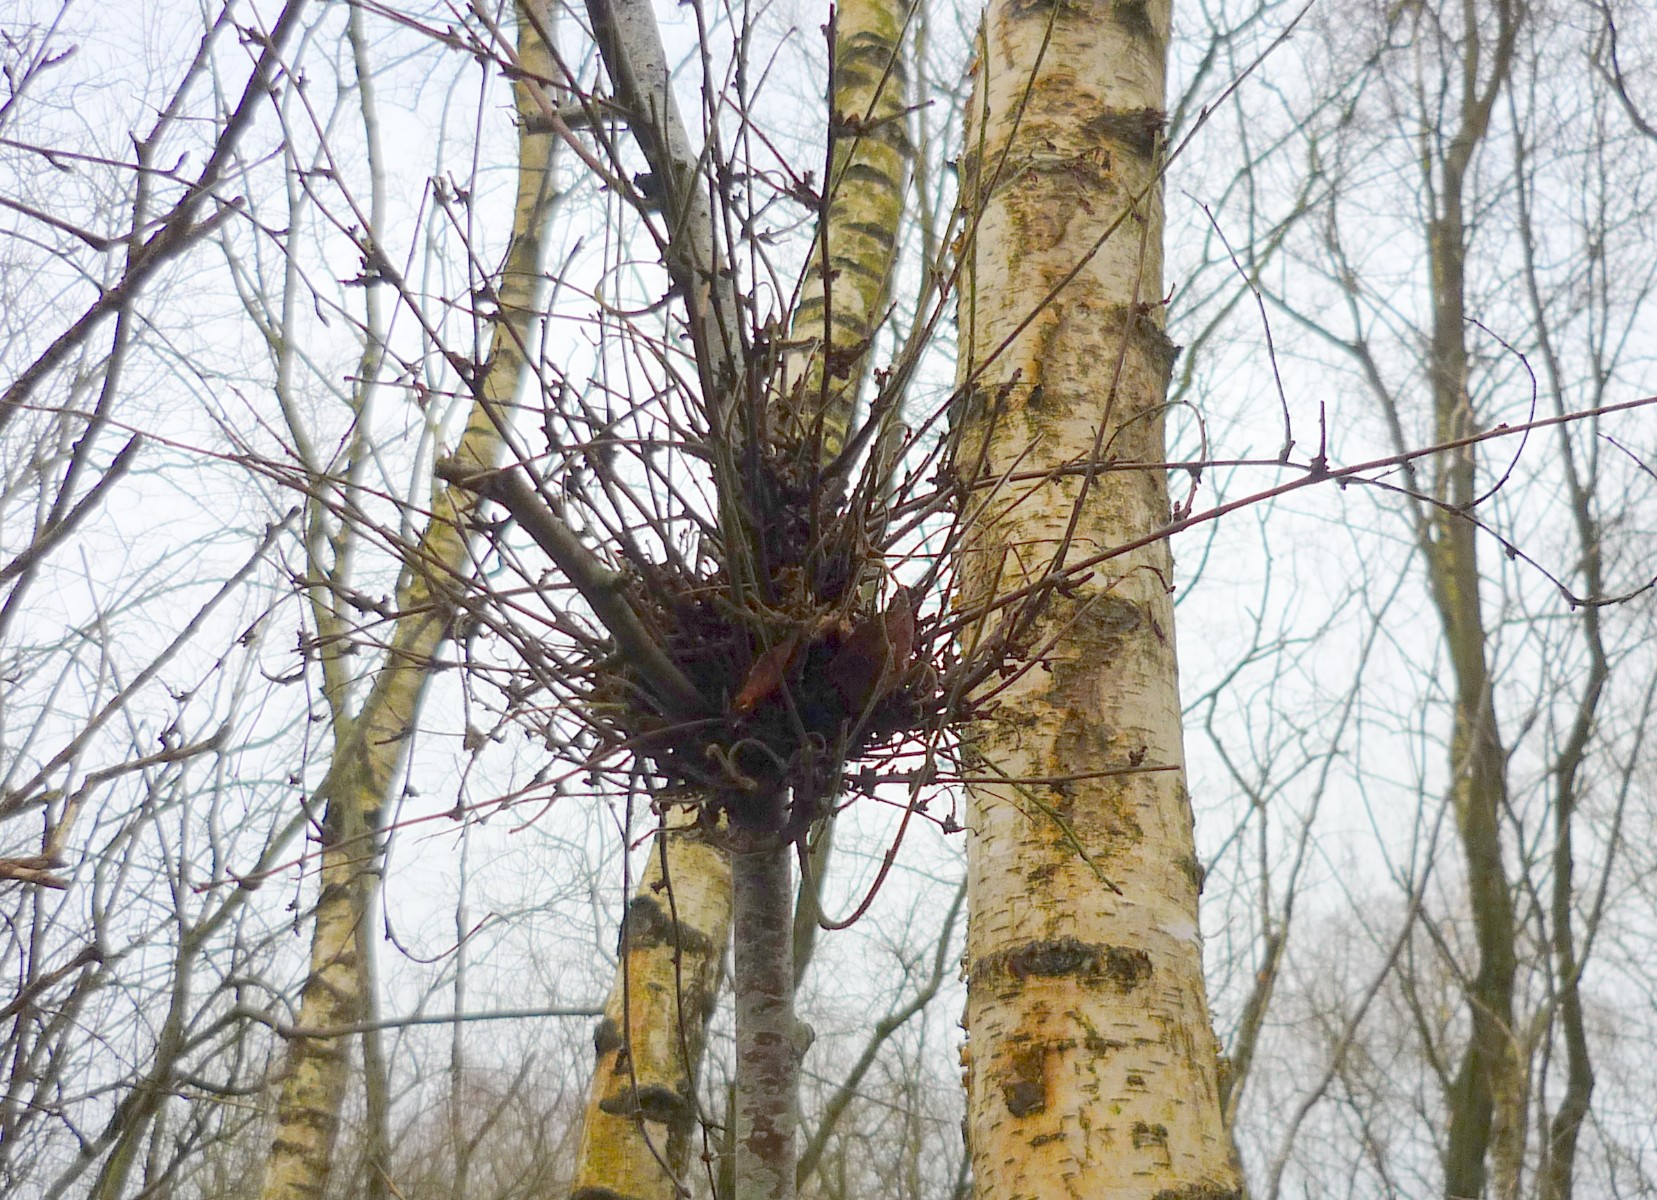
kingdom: Fungi
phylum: Ascomycota
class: Taphrinomycetes
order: Taphrinales
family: Taphrinaceae
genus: Taphrina
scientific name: Taphrina betulina
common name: hekse-sækdug
